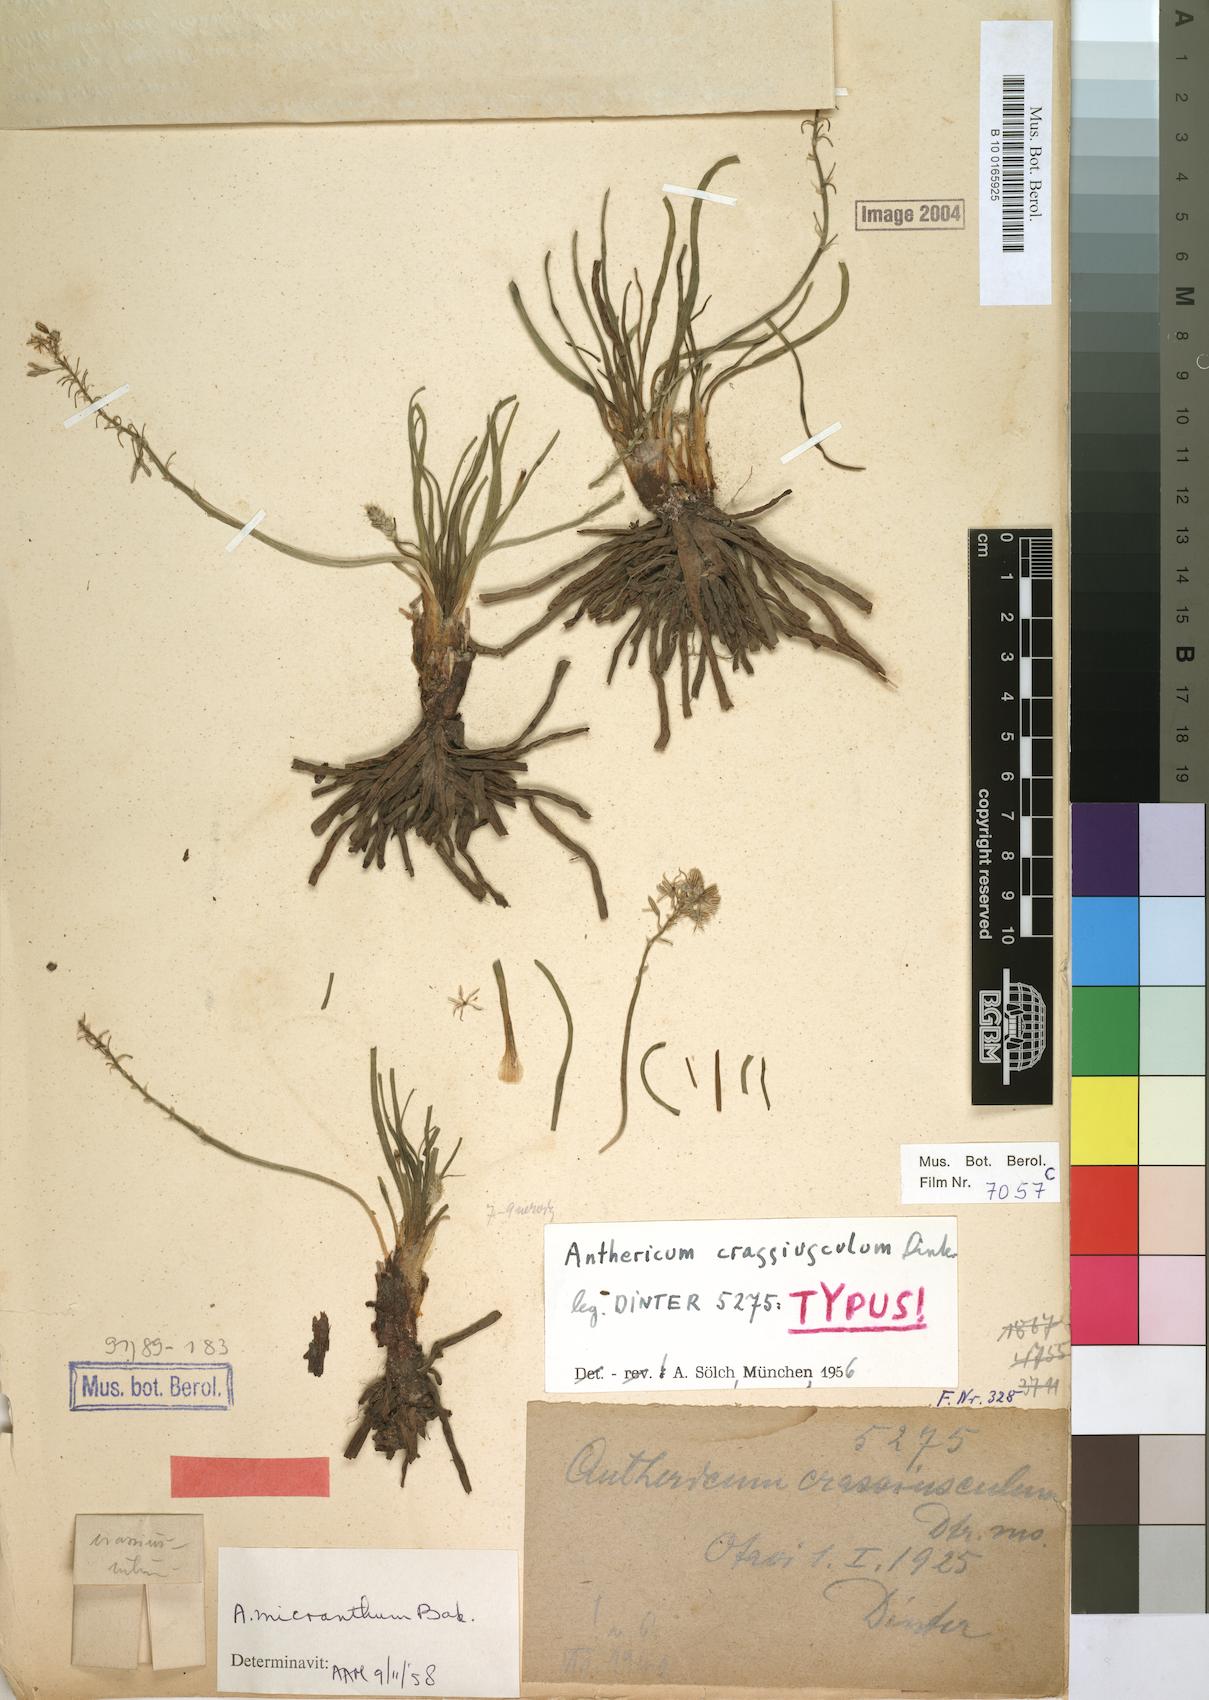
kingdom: Plantae
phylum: Tracheophyta
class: Liliopsida
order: Asparagales
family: Asphodelaceae
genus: Trachyandra
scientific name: Trachyandra saltii
